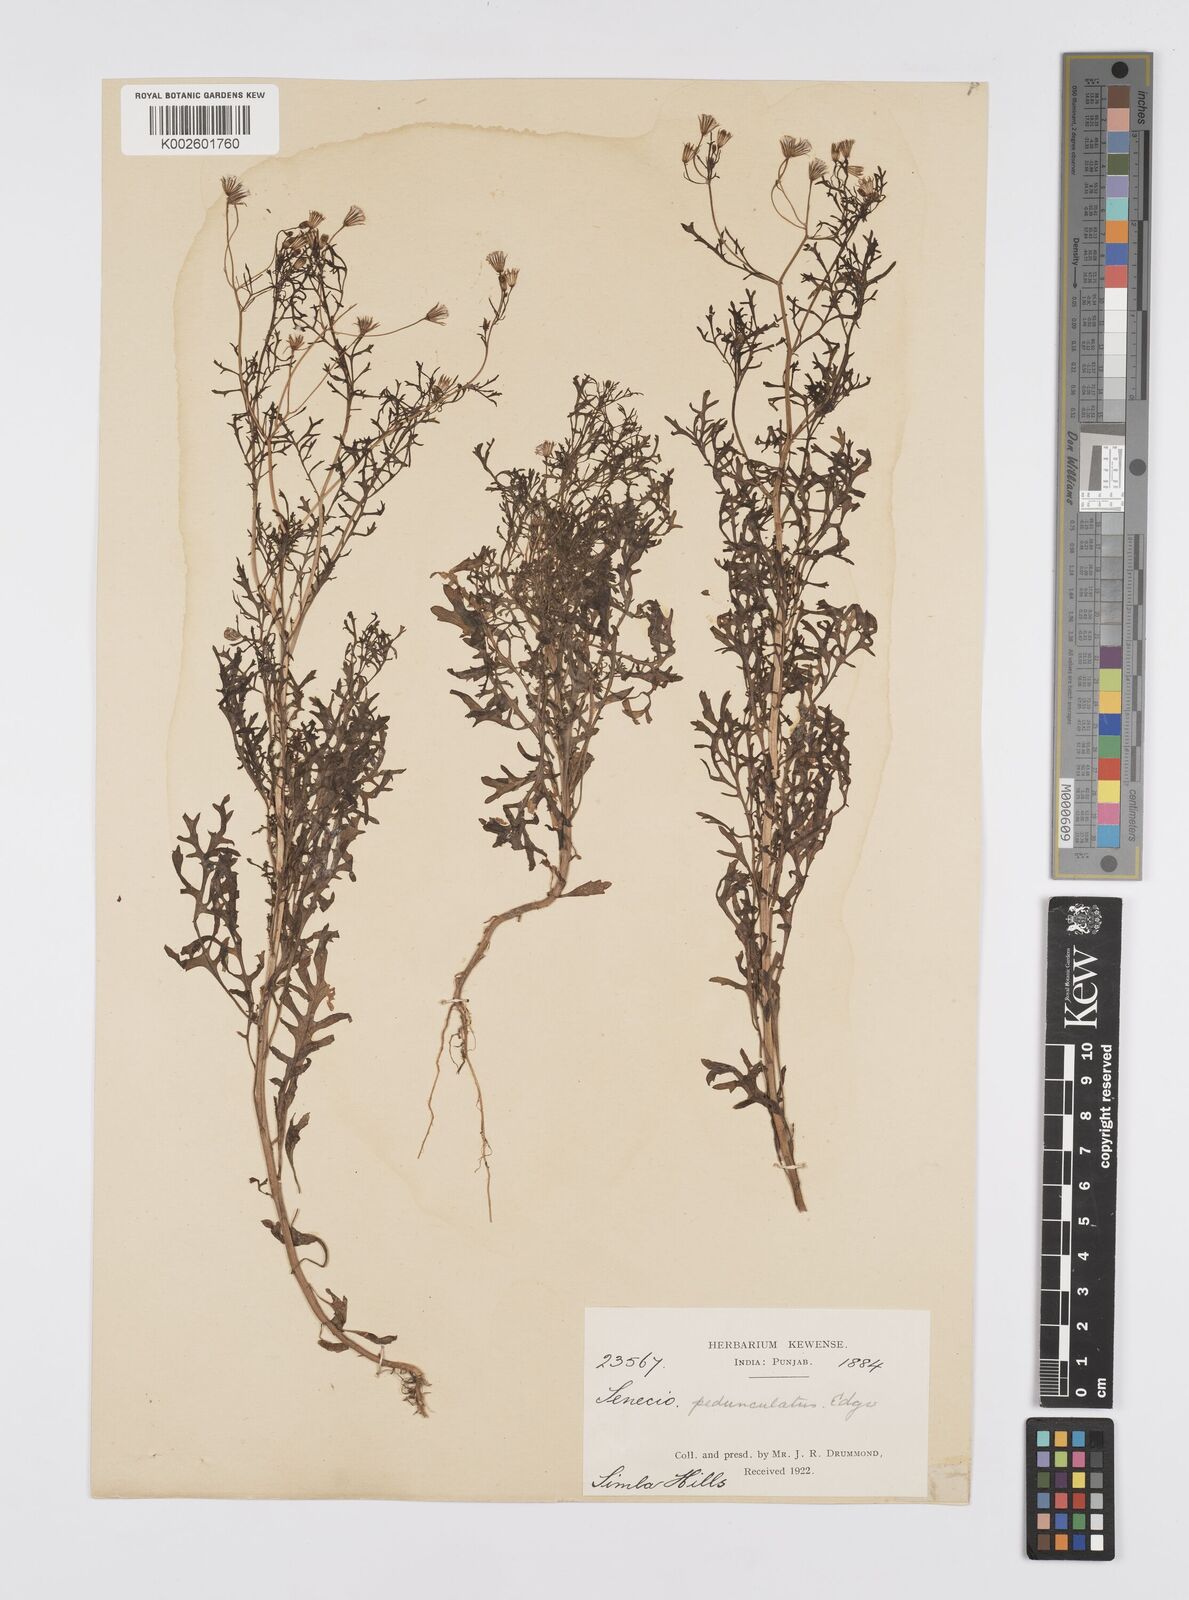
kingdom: Plantae
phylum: Tracheophyta
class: Magnoliopsida
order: Asterales
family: Asteraceae
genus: Senecio
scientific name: Senecio krascheninnikovii
